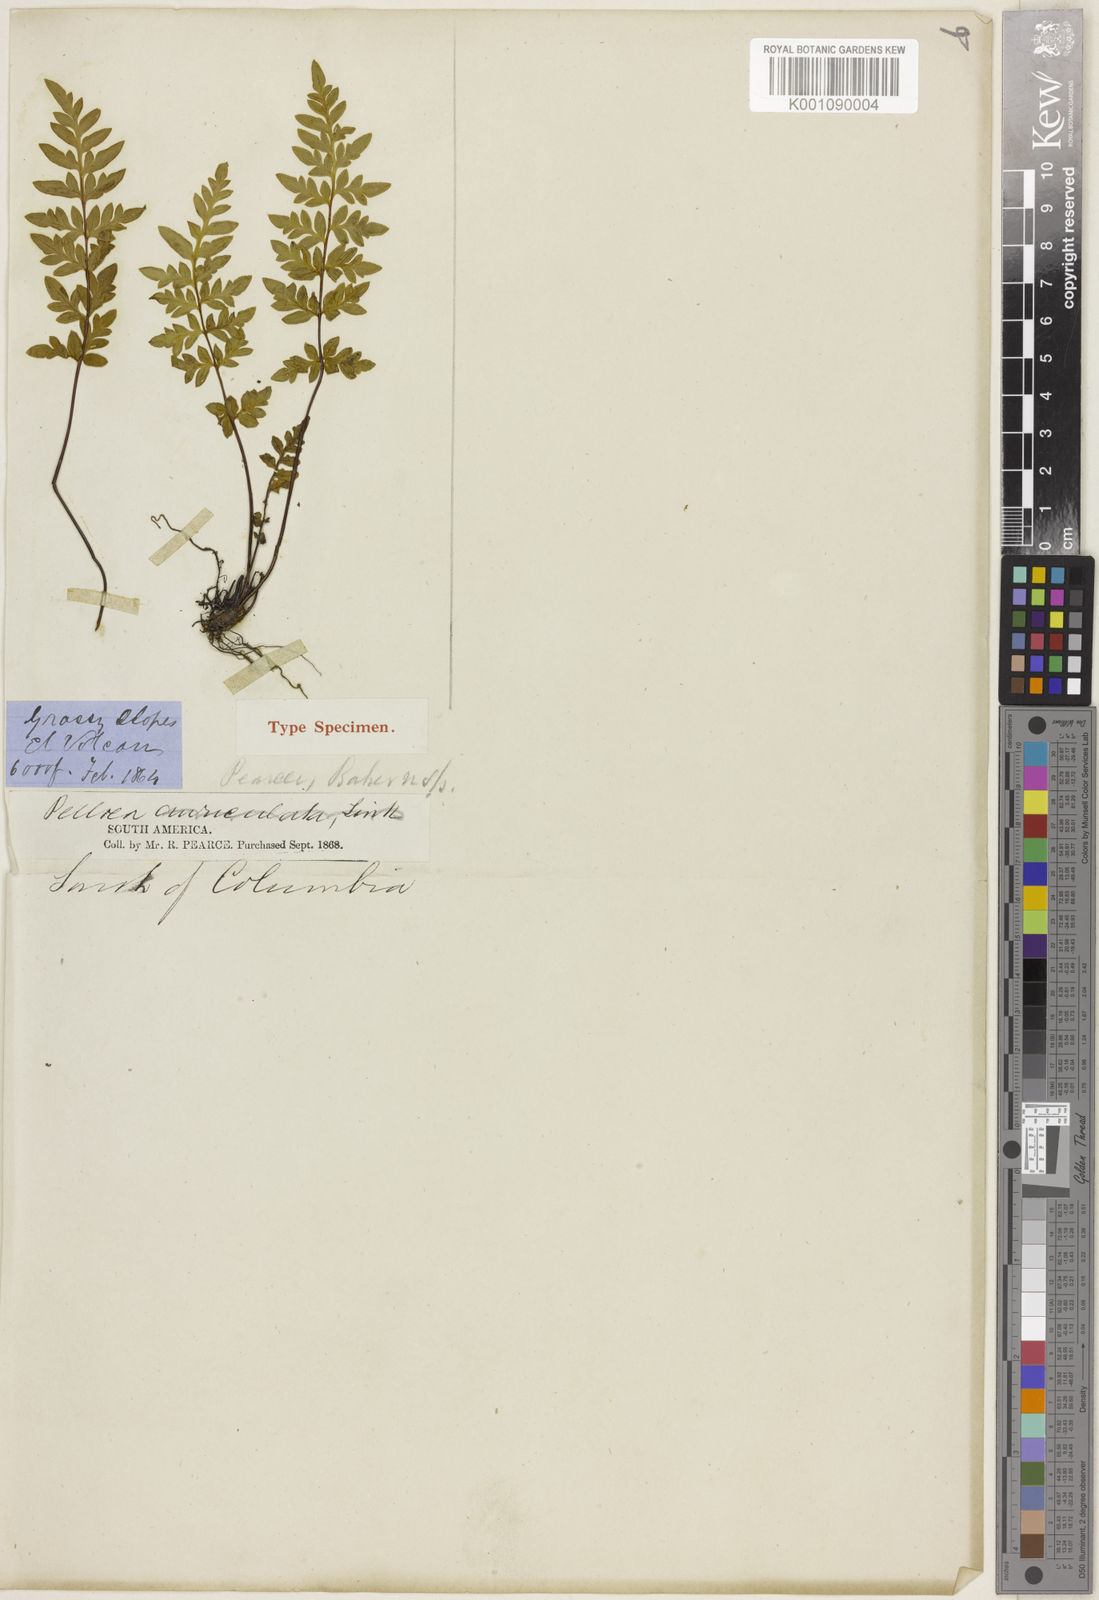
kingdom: Plantae
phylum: Tracheophyta
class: Polypodiopsida
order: Polypodiales
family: Pteridaceae
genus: Hemionitis
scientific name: Hemionitis Pellaea pearcei
